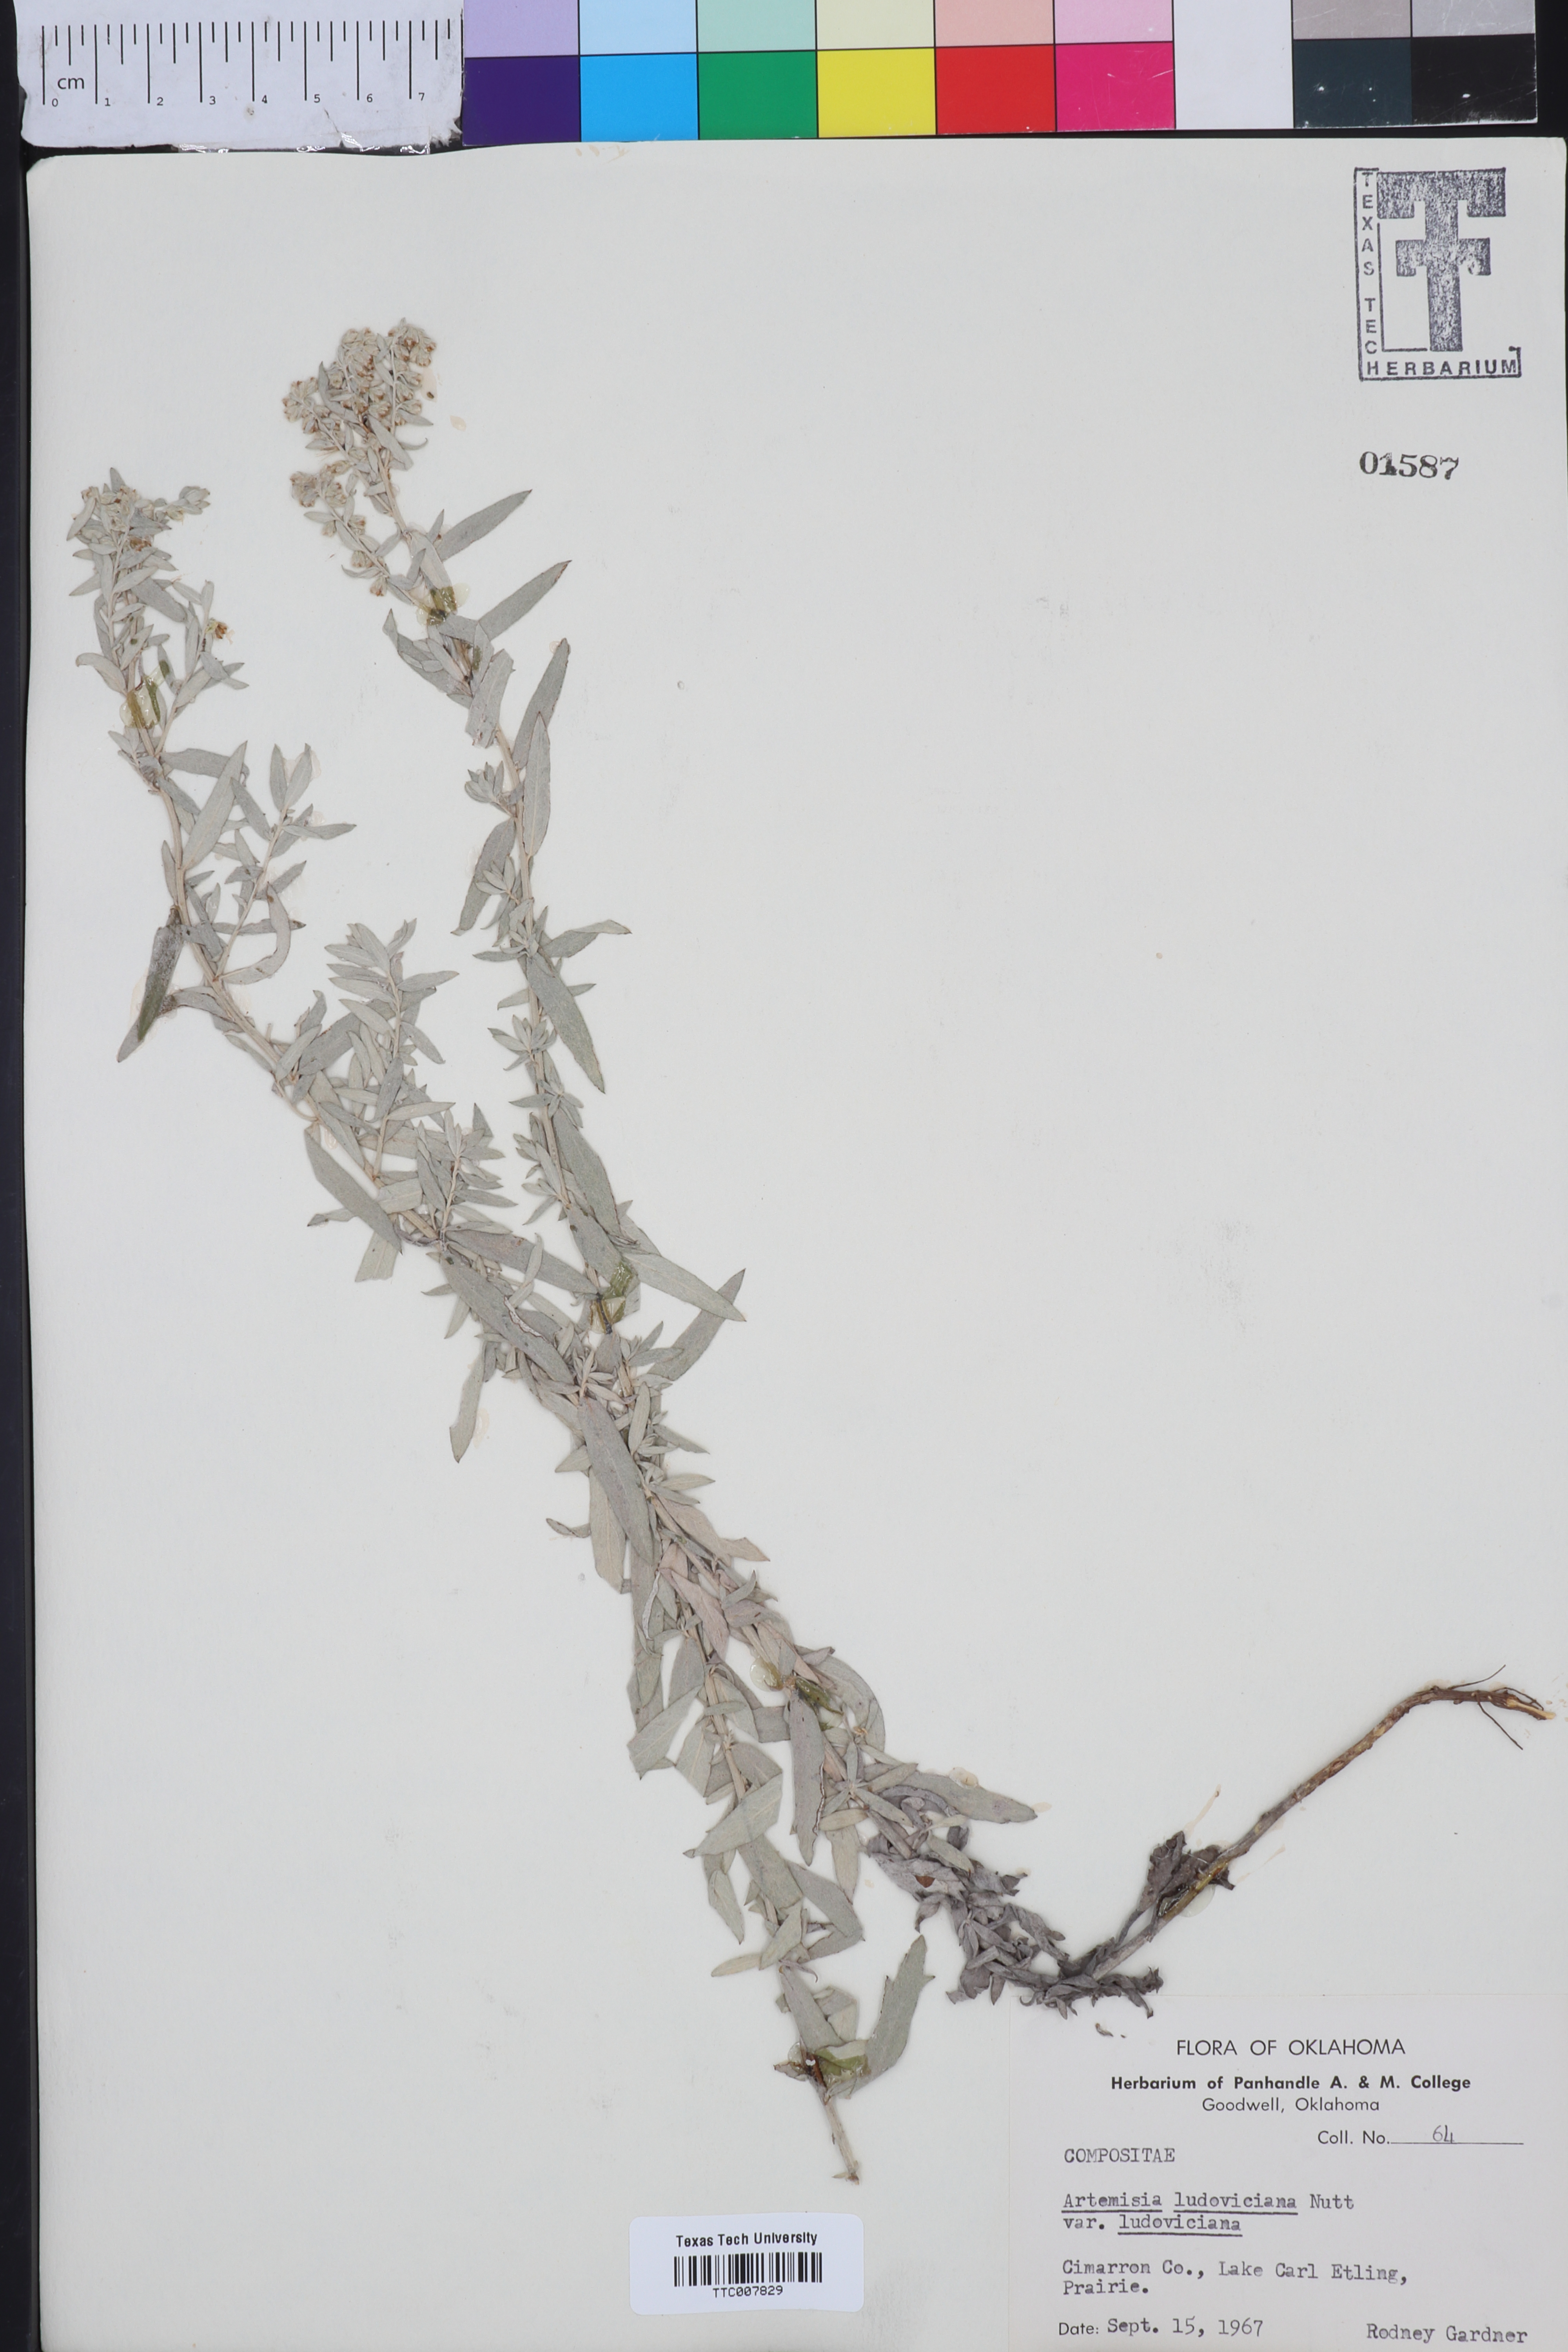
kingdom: Plantae
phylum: Tracheophyta
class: Magnoliopsida
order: Asterales
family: Asteraceae
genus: Artemisia
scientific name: Artemisia ludoviciana
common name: Western mugwort
